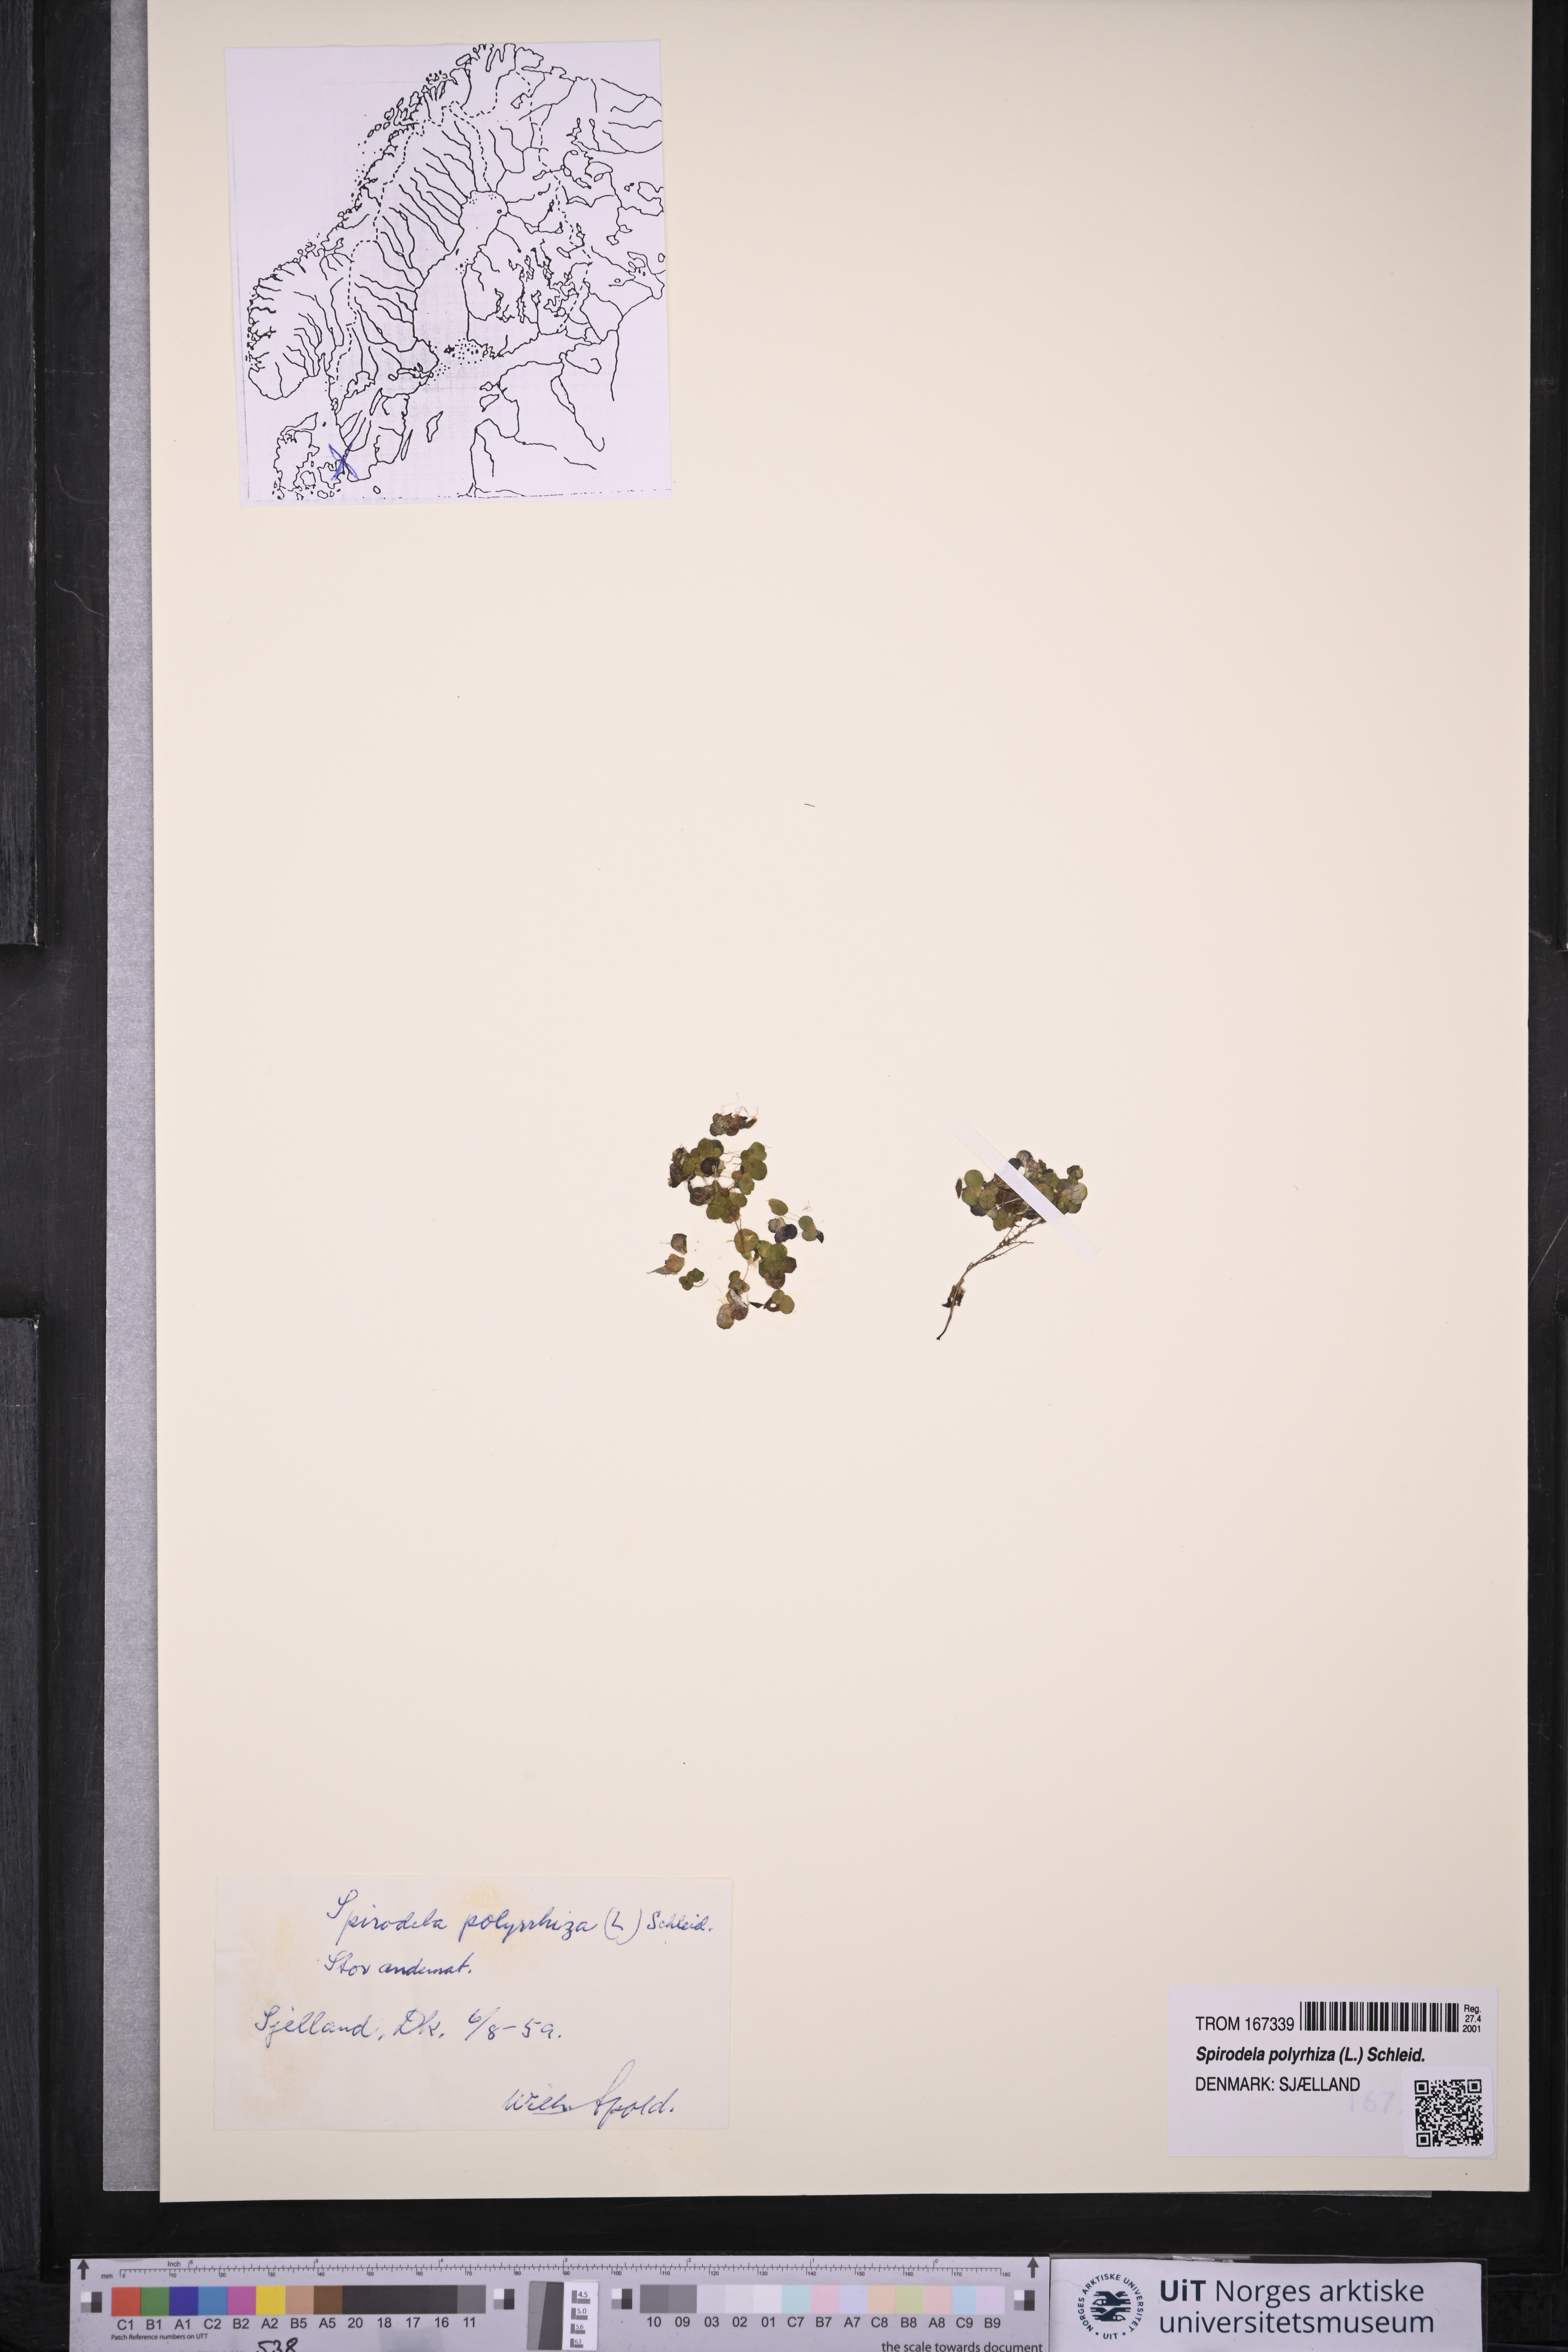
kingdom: Plantae
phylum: Tracheophyta
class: Liliopsida
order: Alismatales
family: Araceae
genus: Spirodela
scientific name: Spirodela polyrhiza
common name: Great duckweed
